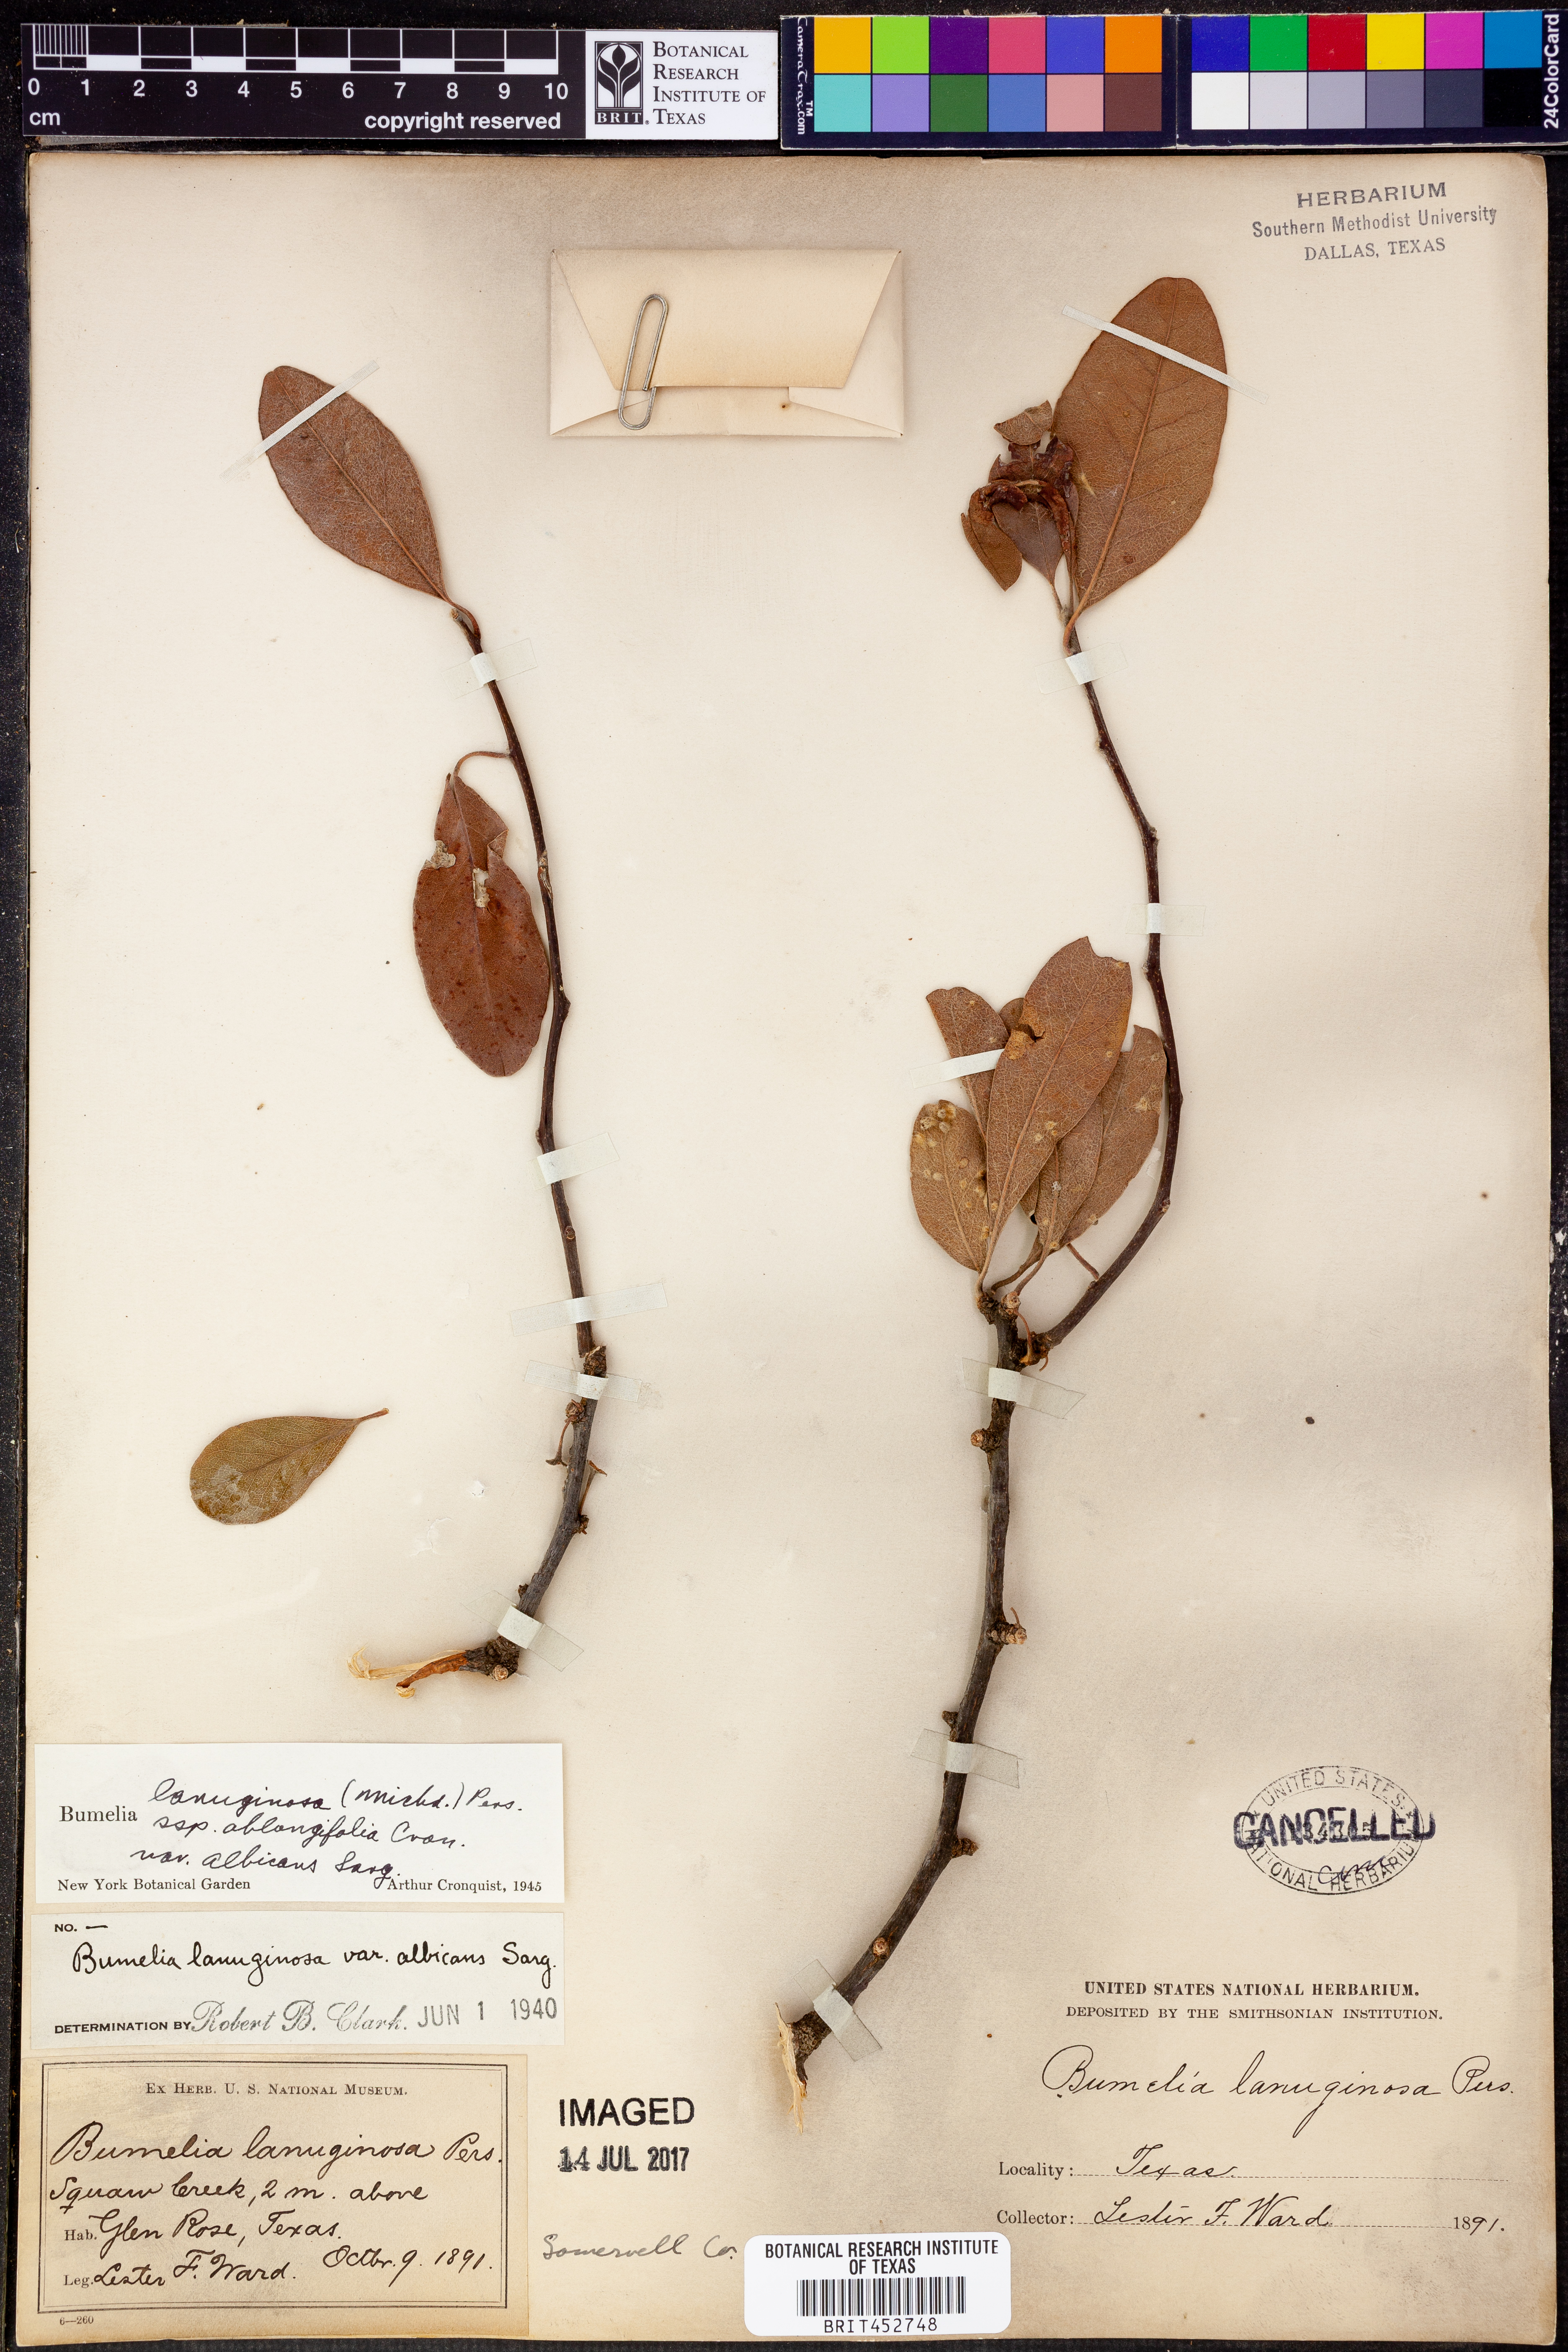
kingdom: Plantae
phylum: Tracheophyta
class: Magnoliopsida
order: Ericales
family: Sapotaceae
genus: Sideroxylon
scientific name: Sideroxylon lanuginosum
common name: Chittamwood
